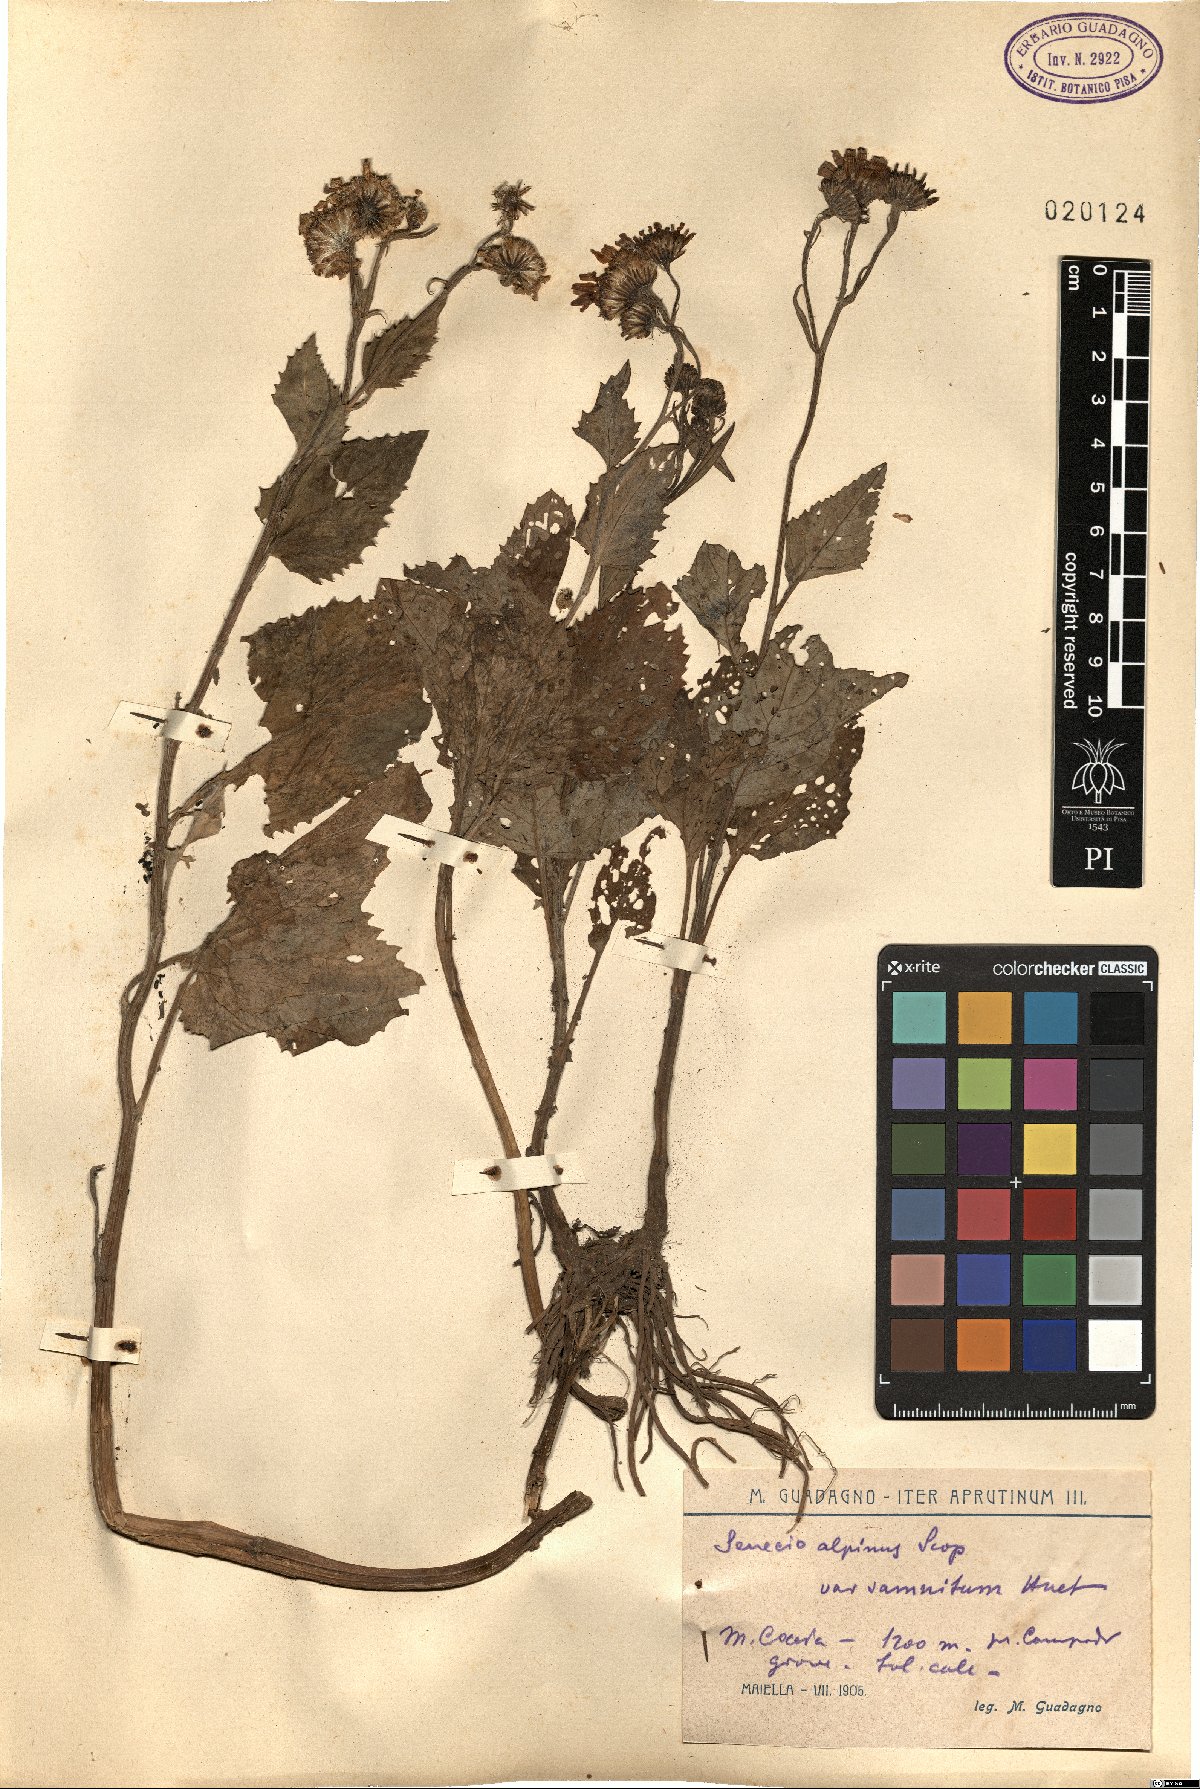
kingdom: Plantae
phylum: Tracheophyta
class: Magnoliopsida
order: Asterales
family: Asteraceae
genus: Jacobaea
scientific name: Jacobaea alpina
